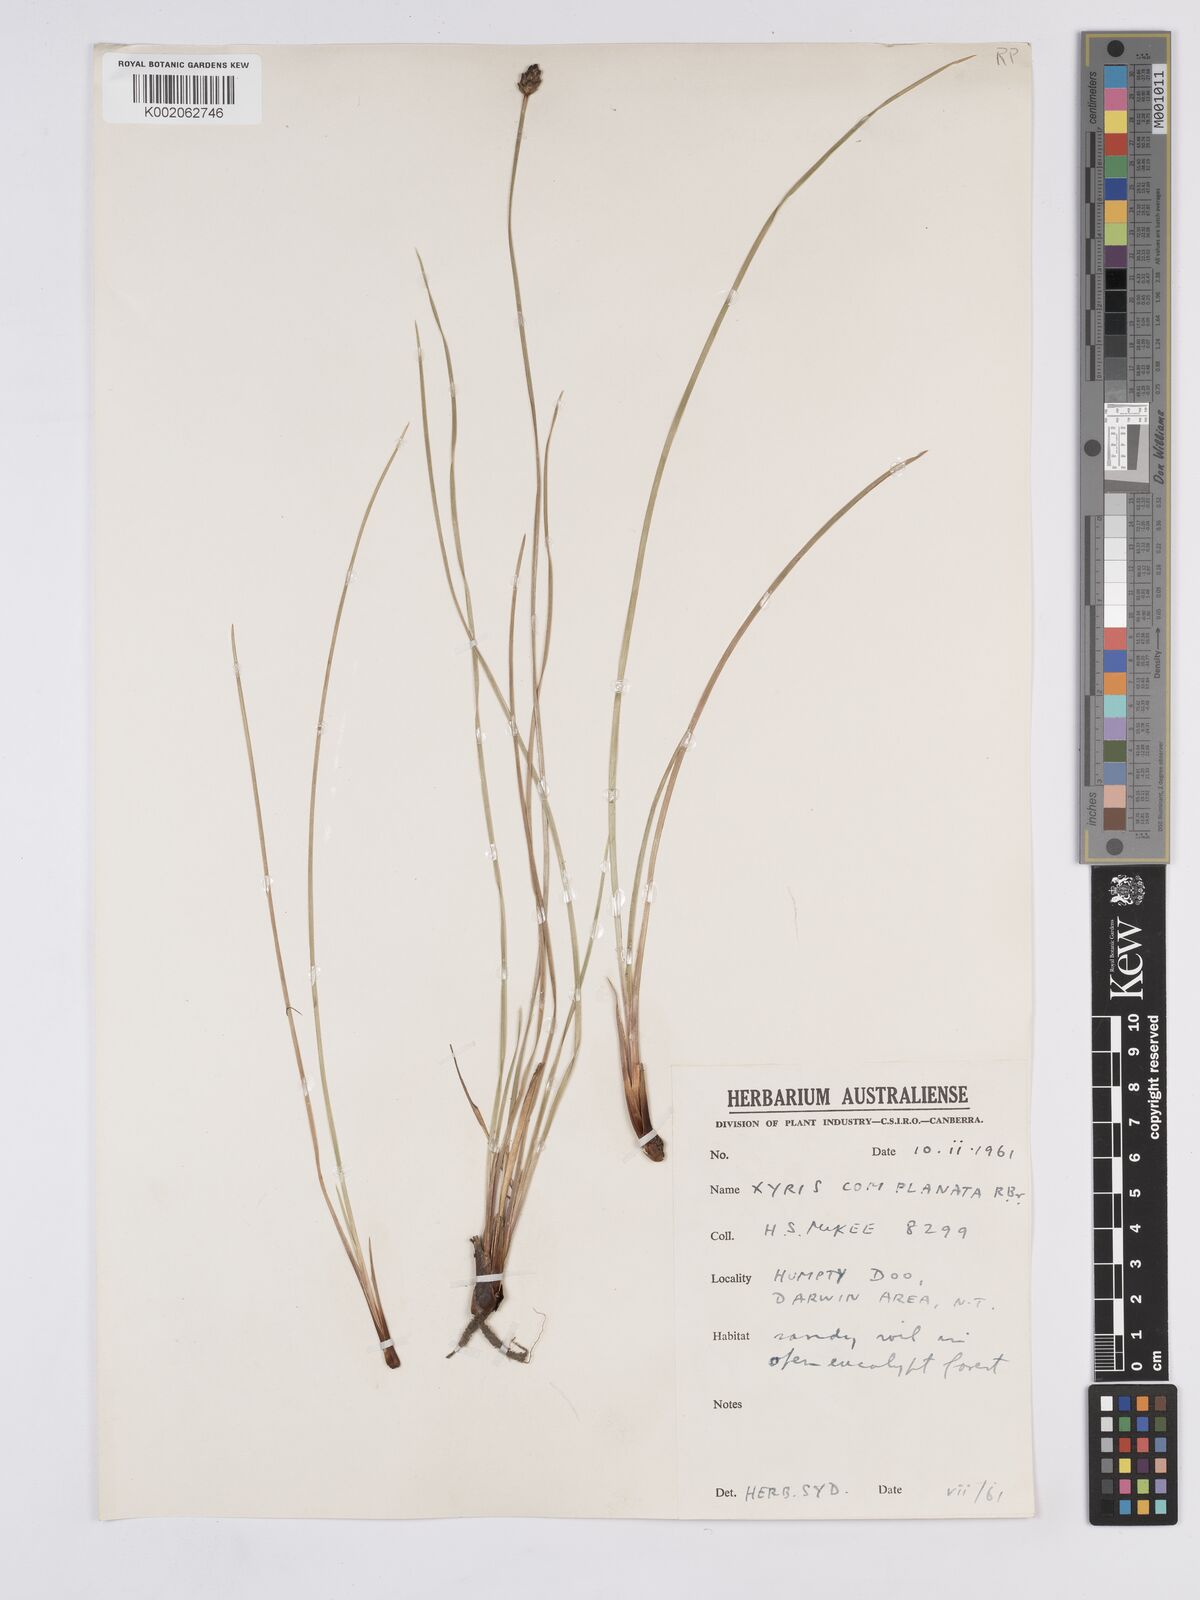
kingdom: Plantae
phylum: Tracheophyta
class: Liliopsida
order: Poales
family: Xyridaceae
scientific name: Xyridaceae
